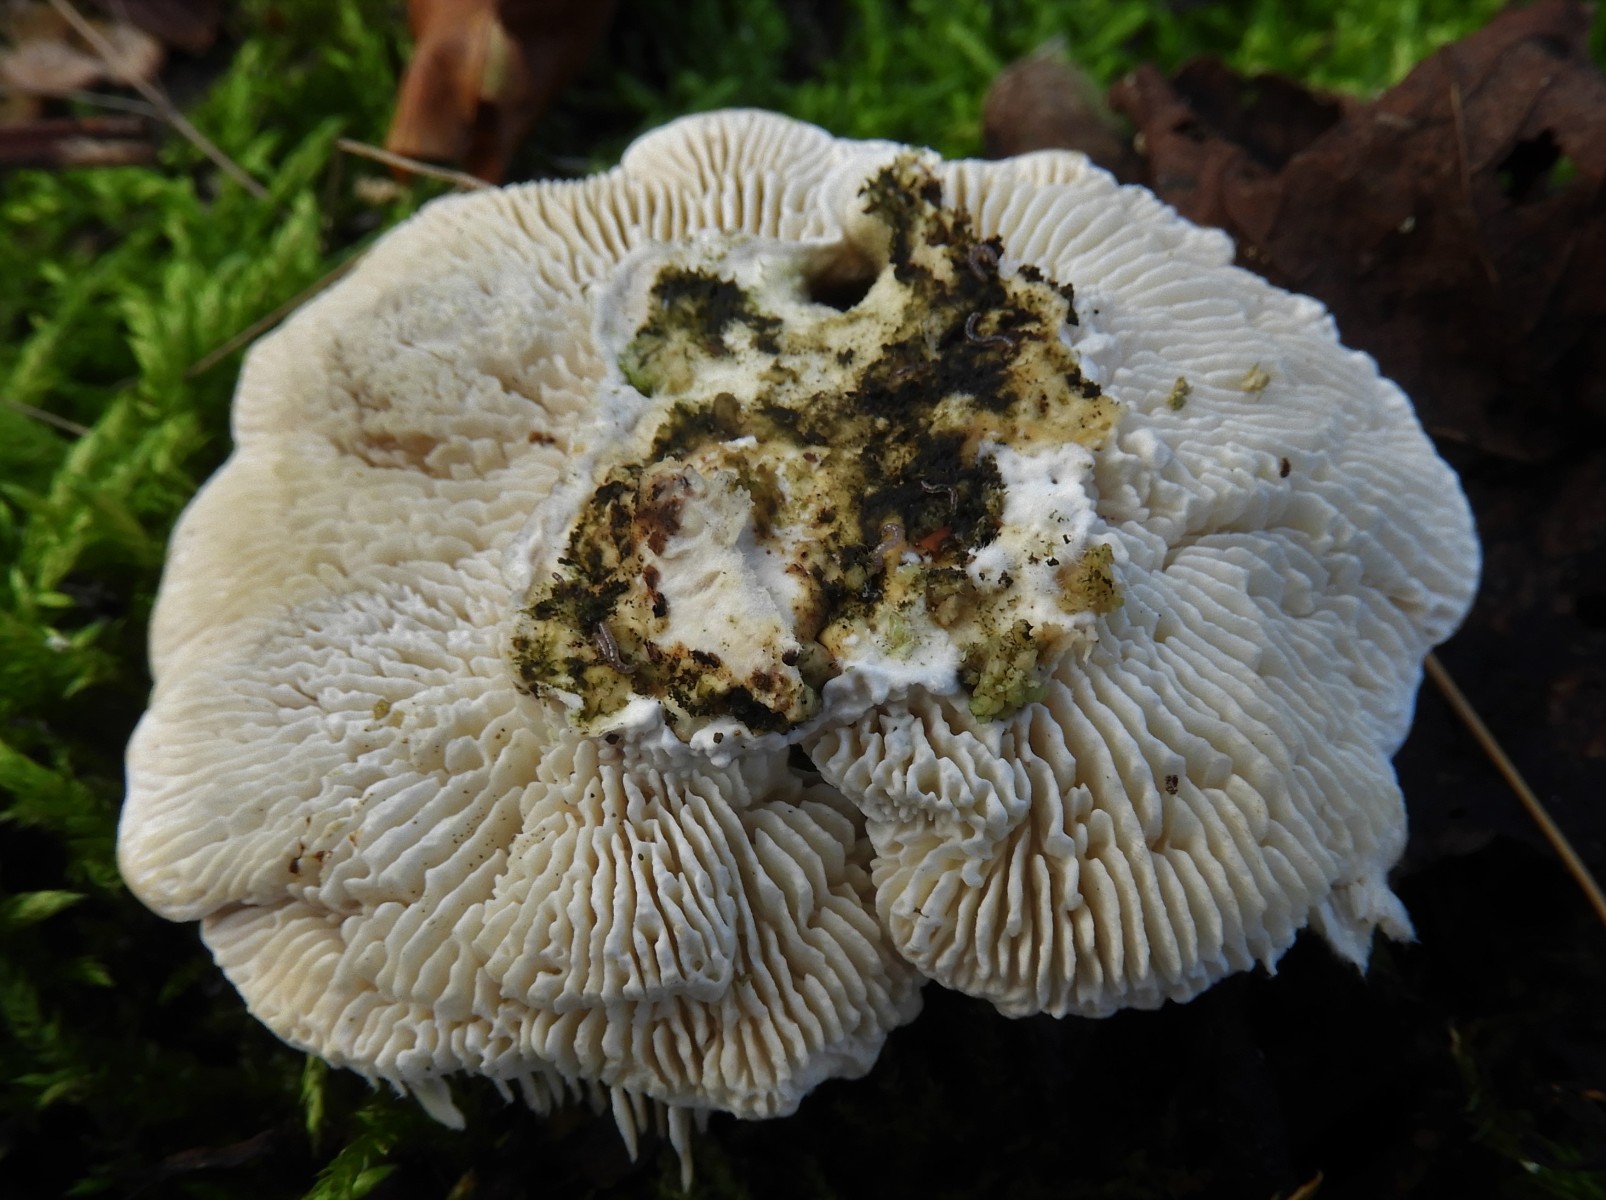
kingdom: Fungi
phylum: Basidiomycota
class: Agaricomycetes
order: Polyporales
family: Polyporaceae
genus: Lenzites
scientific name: Lenzites betulinus
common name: birke-læderporesvamp
